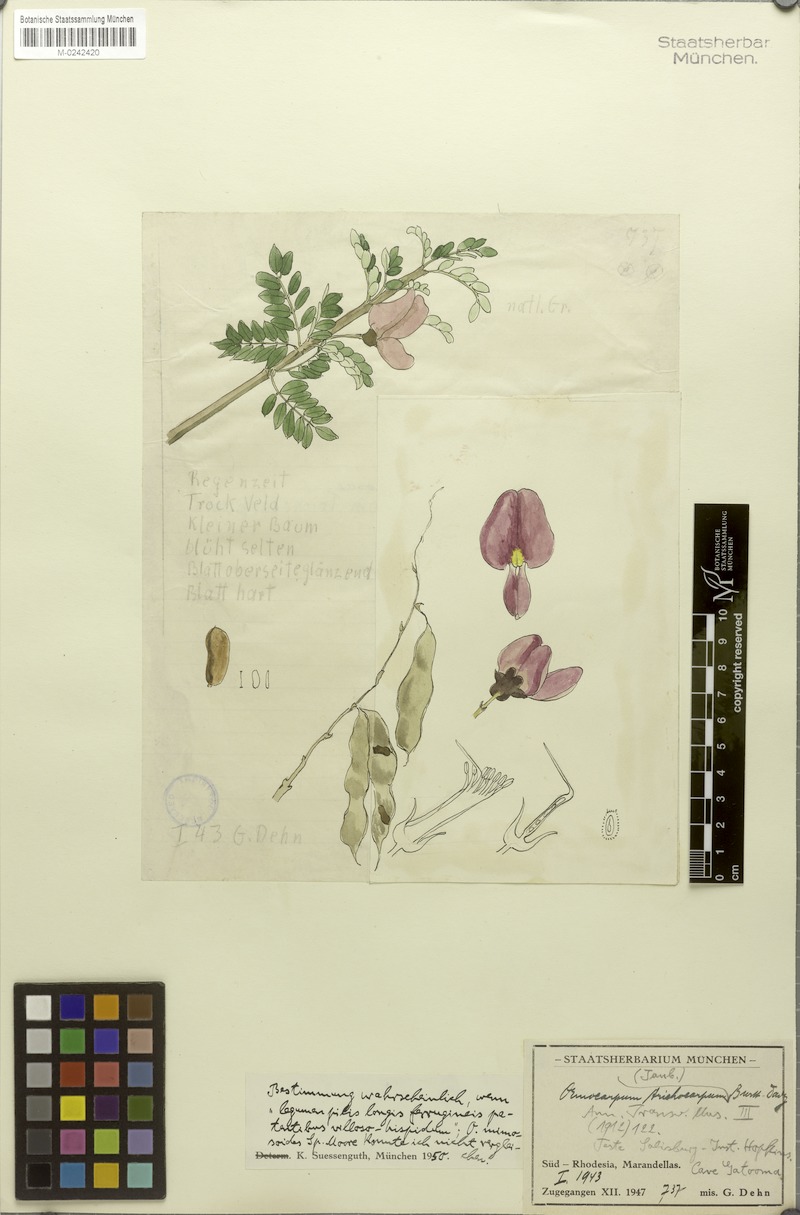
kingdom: Plantae
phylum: Tracheophyta
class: Magnoliopsida
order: Fabales
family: Fabaceae
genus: Ormocarpum
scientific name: Ormocarpum trichocarpum
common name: Caterpillar bush
